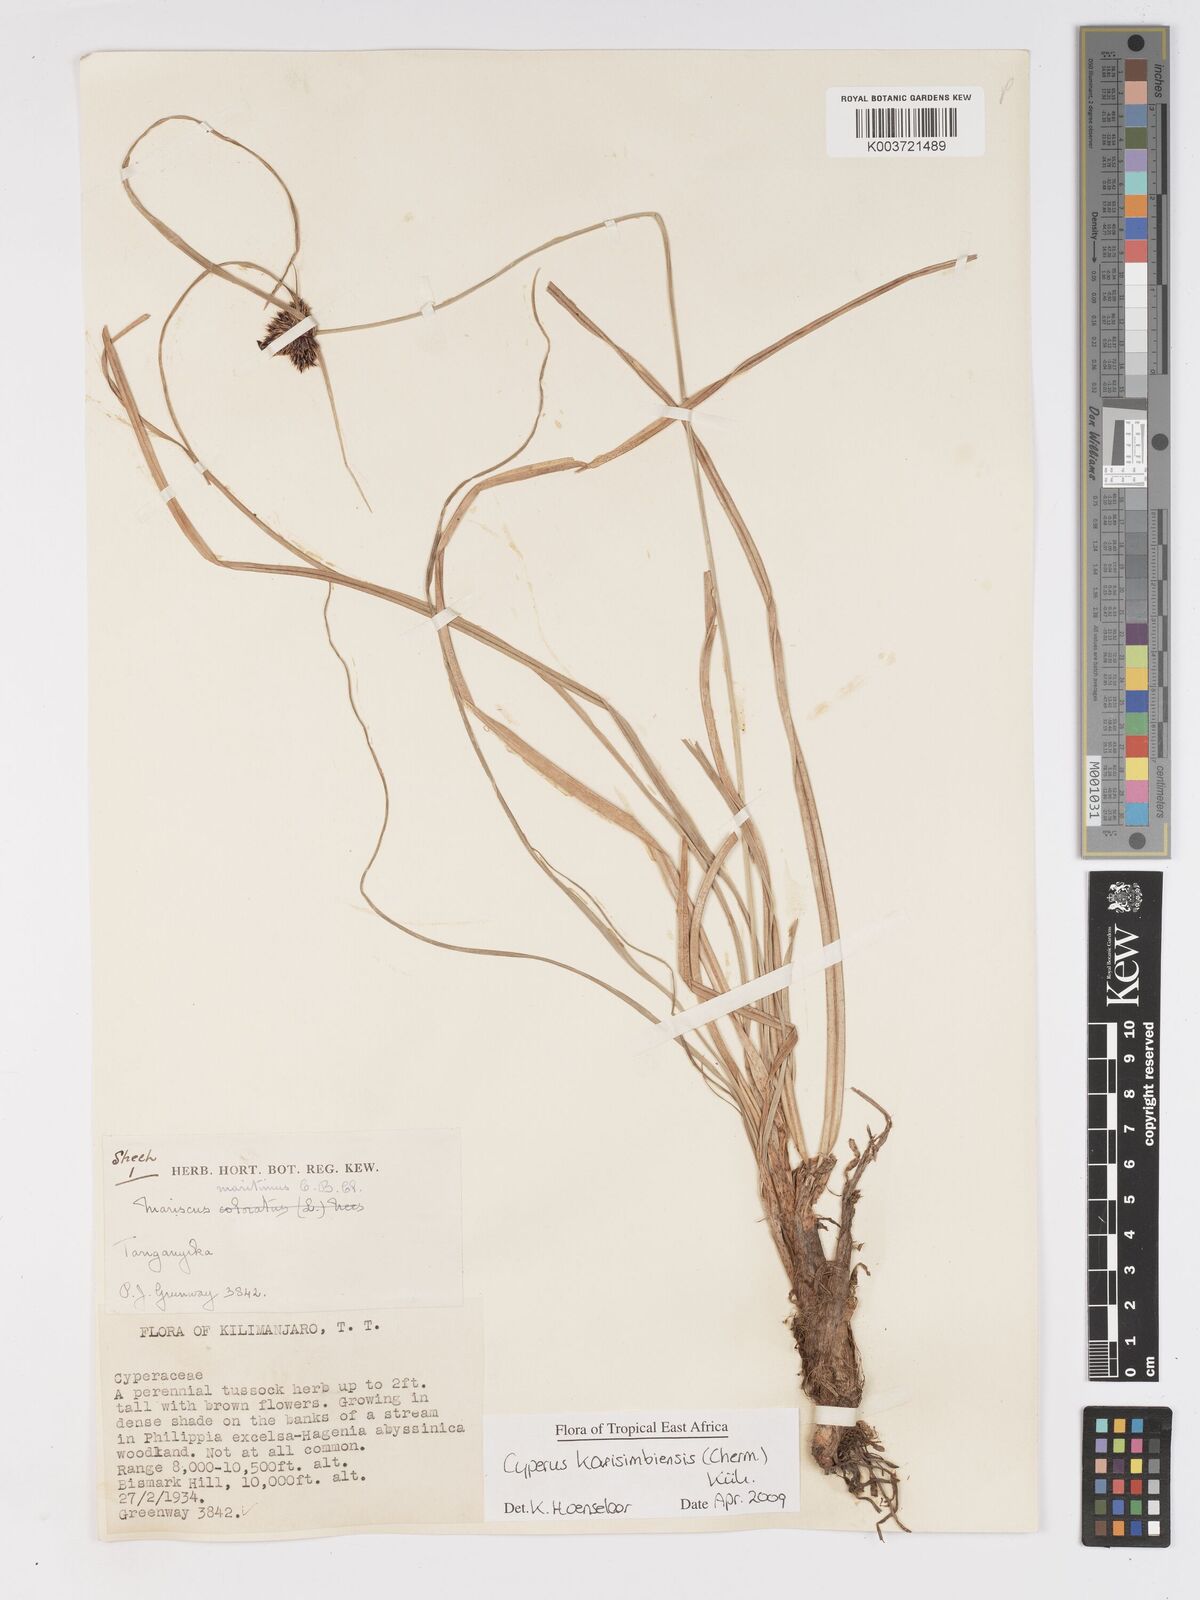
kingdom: Plantae
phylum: Tracheophyta
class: Liliopsida
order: Poales
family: Cyperaceae
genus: Cyperus
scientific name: Cyperus karisimbiensis
